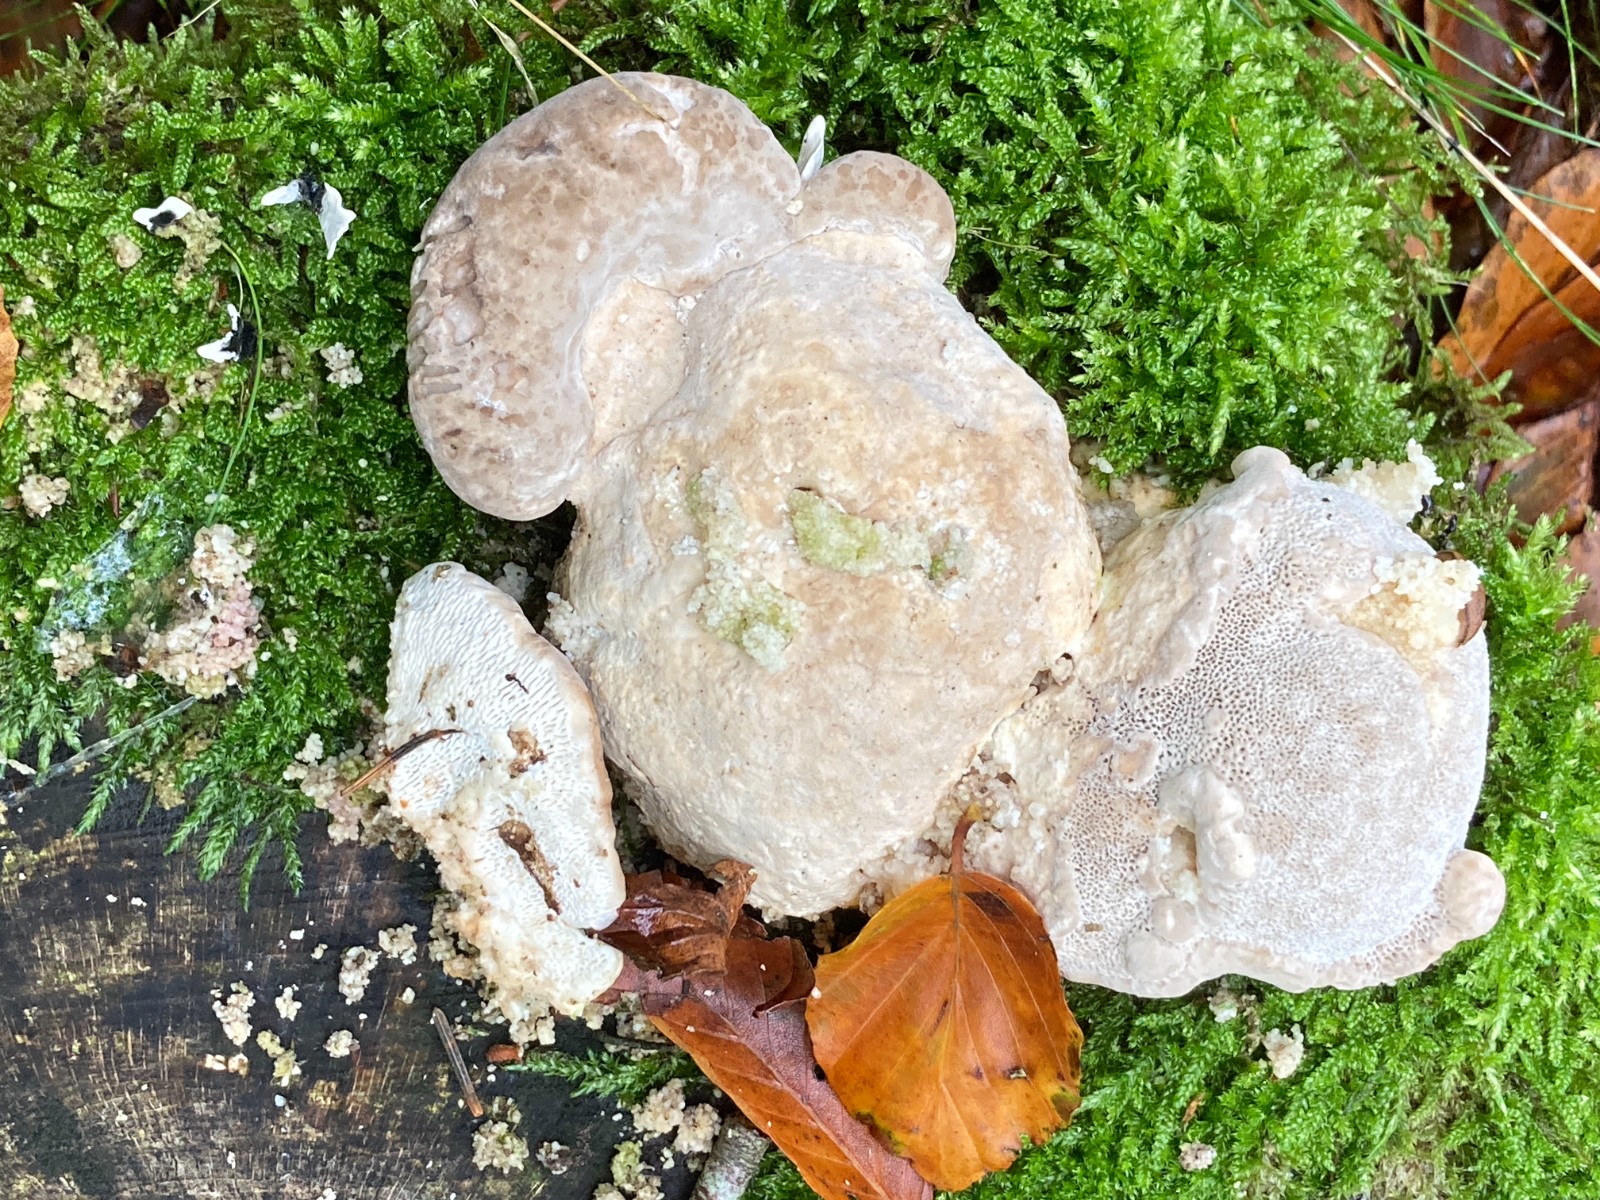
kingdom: Fungi
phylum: Basidiomycota
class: Agaricomycetes
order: Polyporales
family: Polyporaceae
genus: Trametes
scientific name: Trametes gibbosa
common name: puklet læderporesvamp
